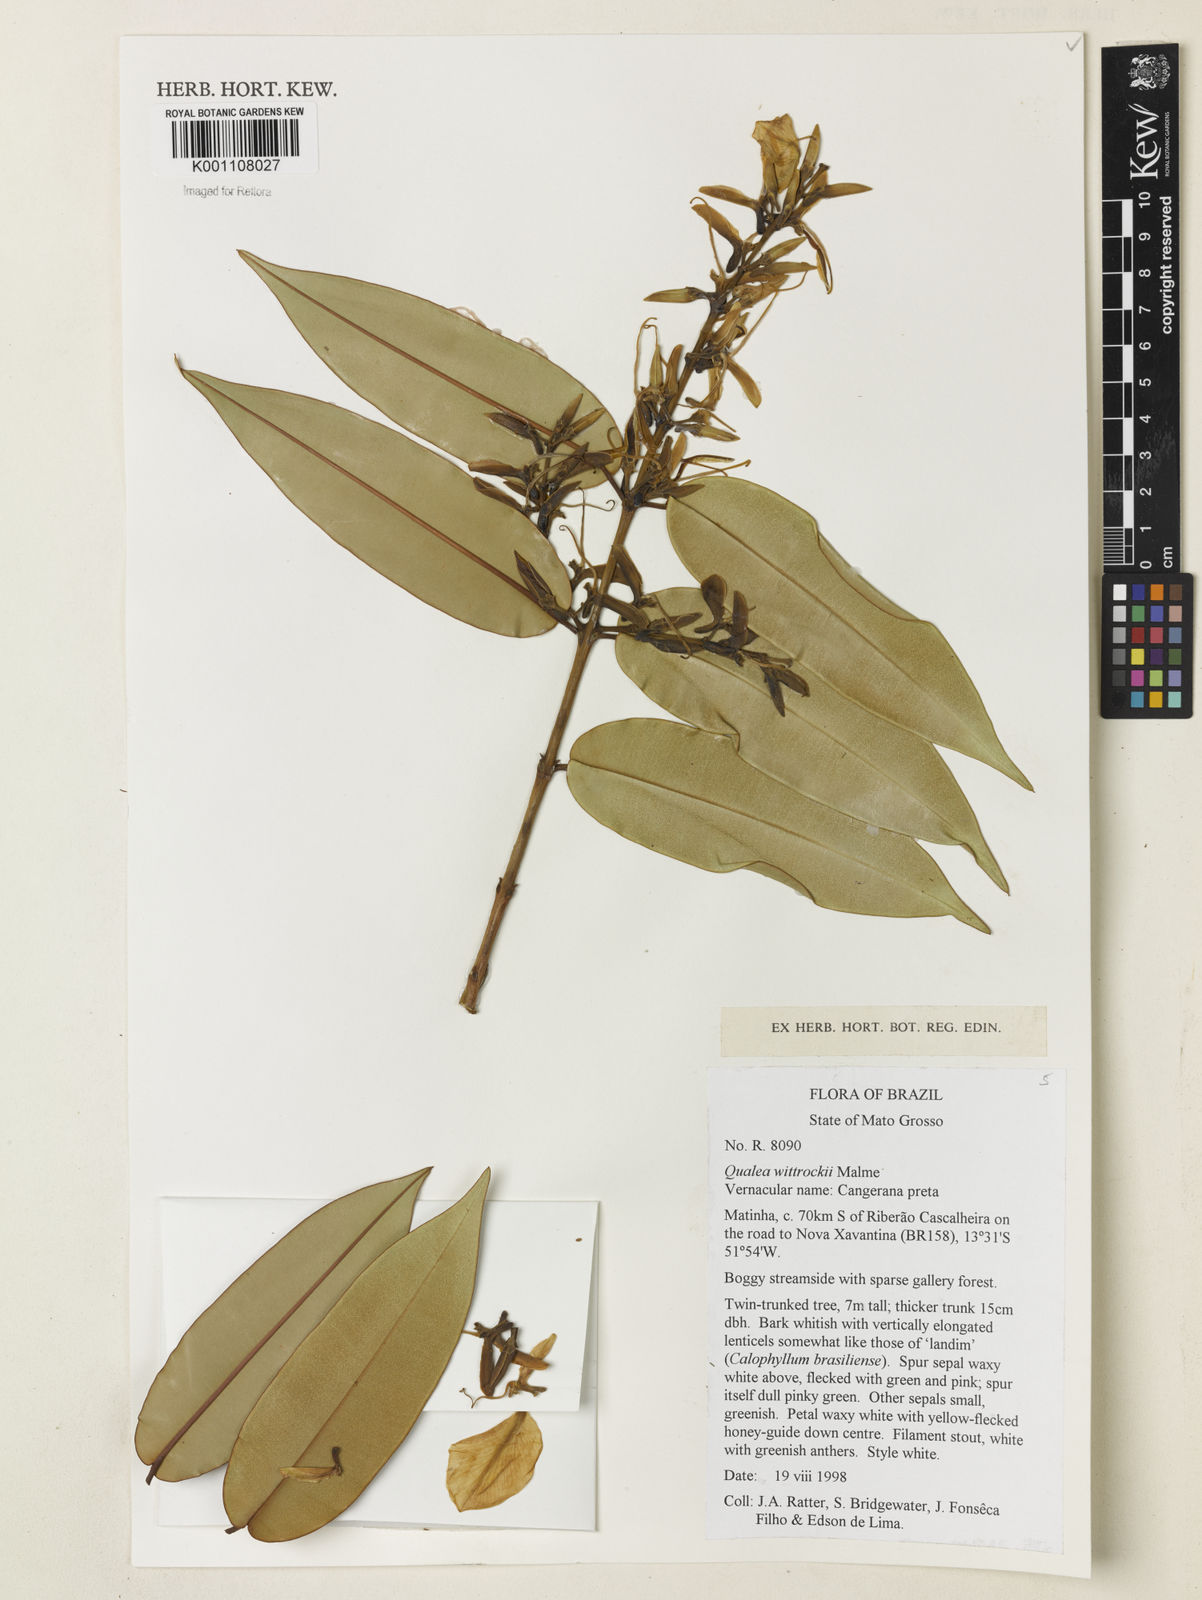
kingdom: Plantae
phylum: Tracheophyta
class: Magnoliopsida
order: Myrtales
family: Vochysiaceae
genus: Ruizterania
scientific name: Ruizterania wittrockii
